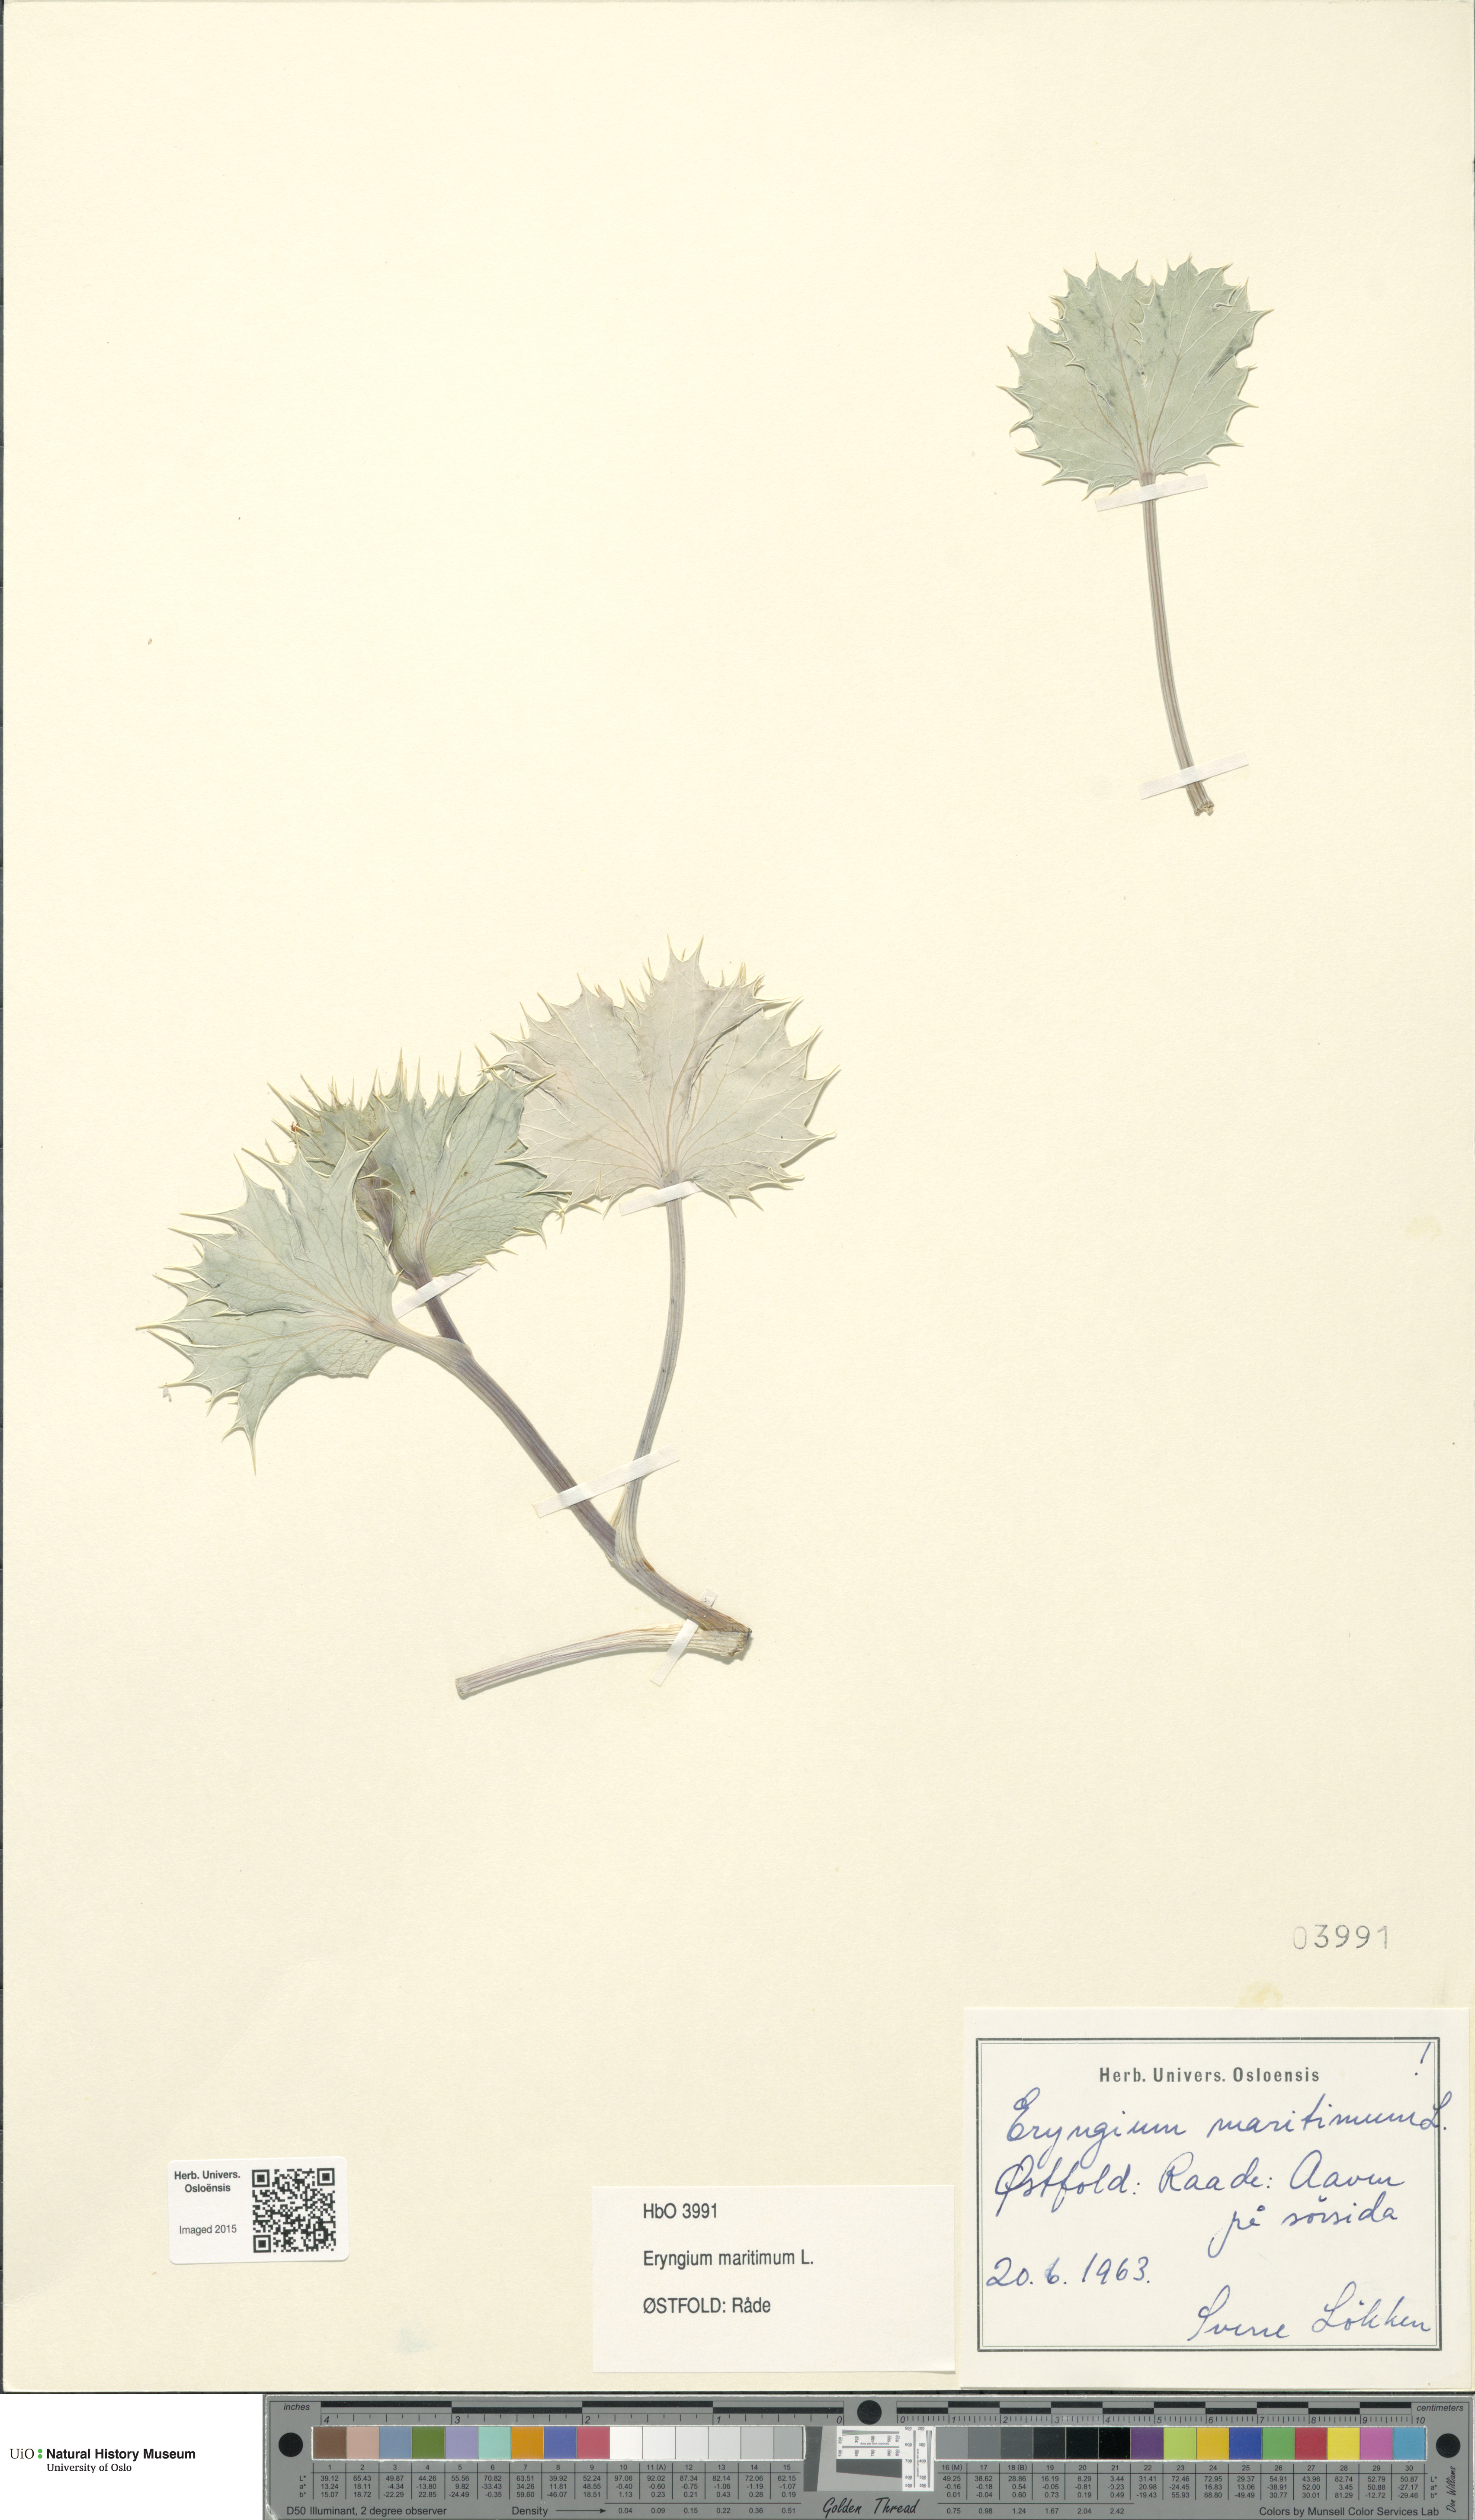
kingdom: Plantae
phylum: Tracheophyta
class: Magnoliopsida
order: Apiales
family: Apiaceae
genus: Eryngium
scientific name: Eryngium maritimum
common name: Sea-holly
